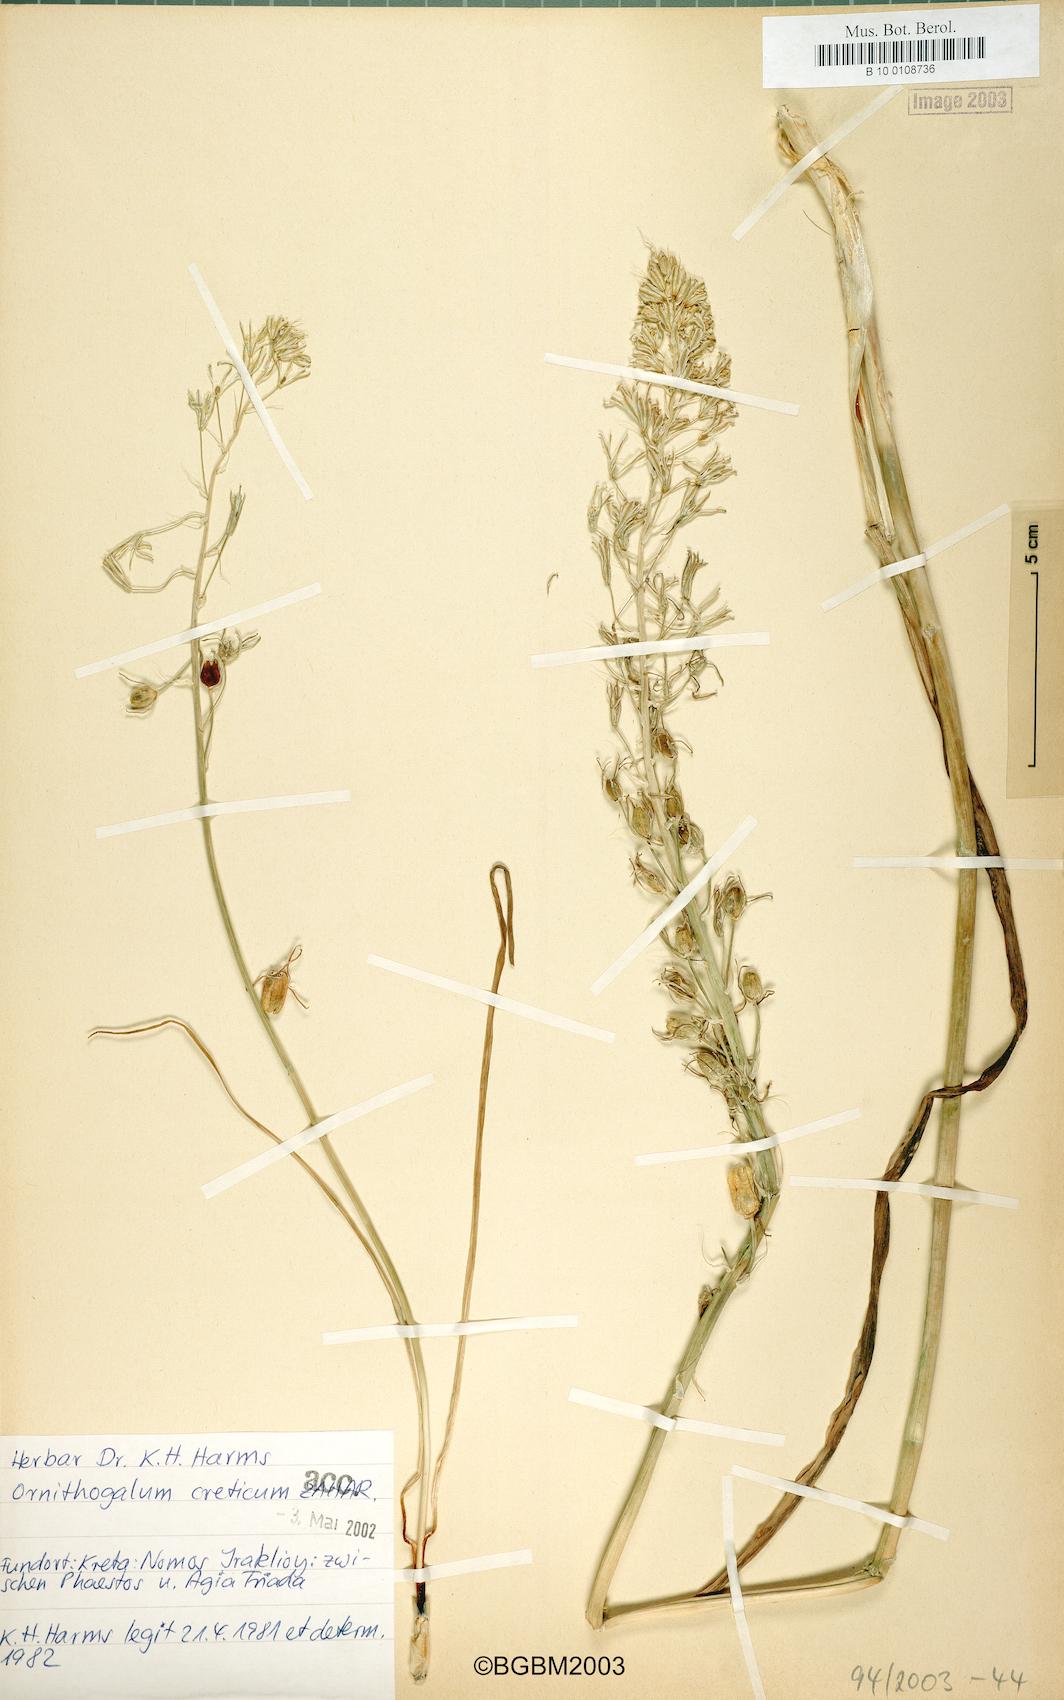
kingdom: Plantae
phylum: Tracheophyta
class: Liliopsida
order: Asparagales
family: Asparagaceae
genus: Ornithogalum
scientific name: Ornithogalum creticum
